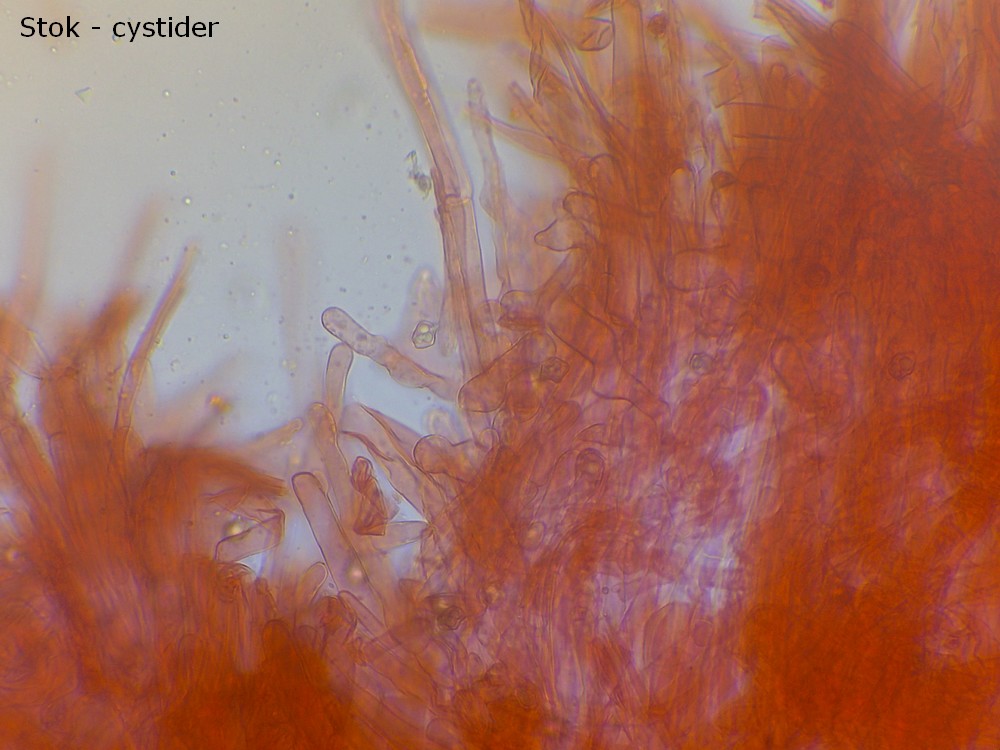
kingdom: Fungi
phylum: Basidiomycota
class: Agaricomycetes
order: Agaricales
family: Entolomataceae
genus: Entoloma
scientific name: Entoloma sericellum
